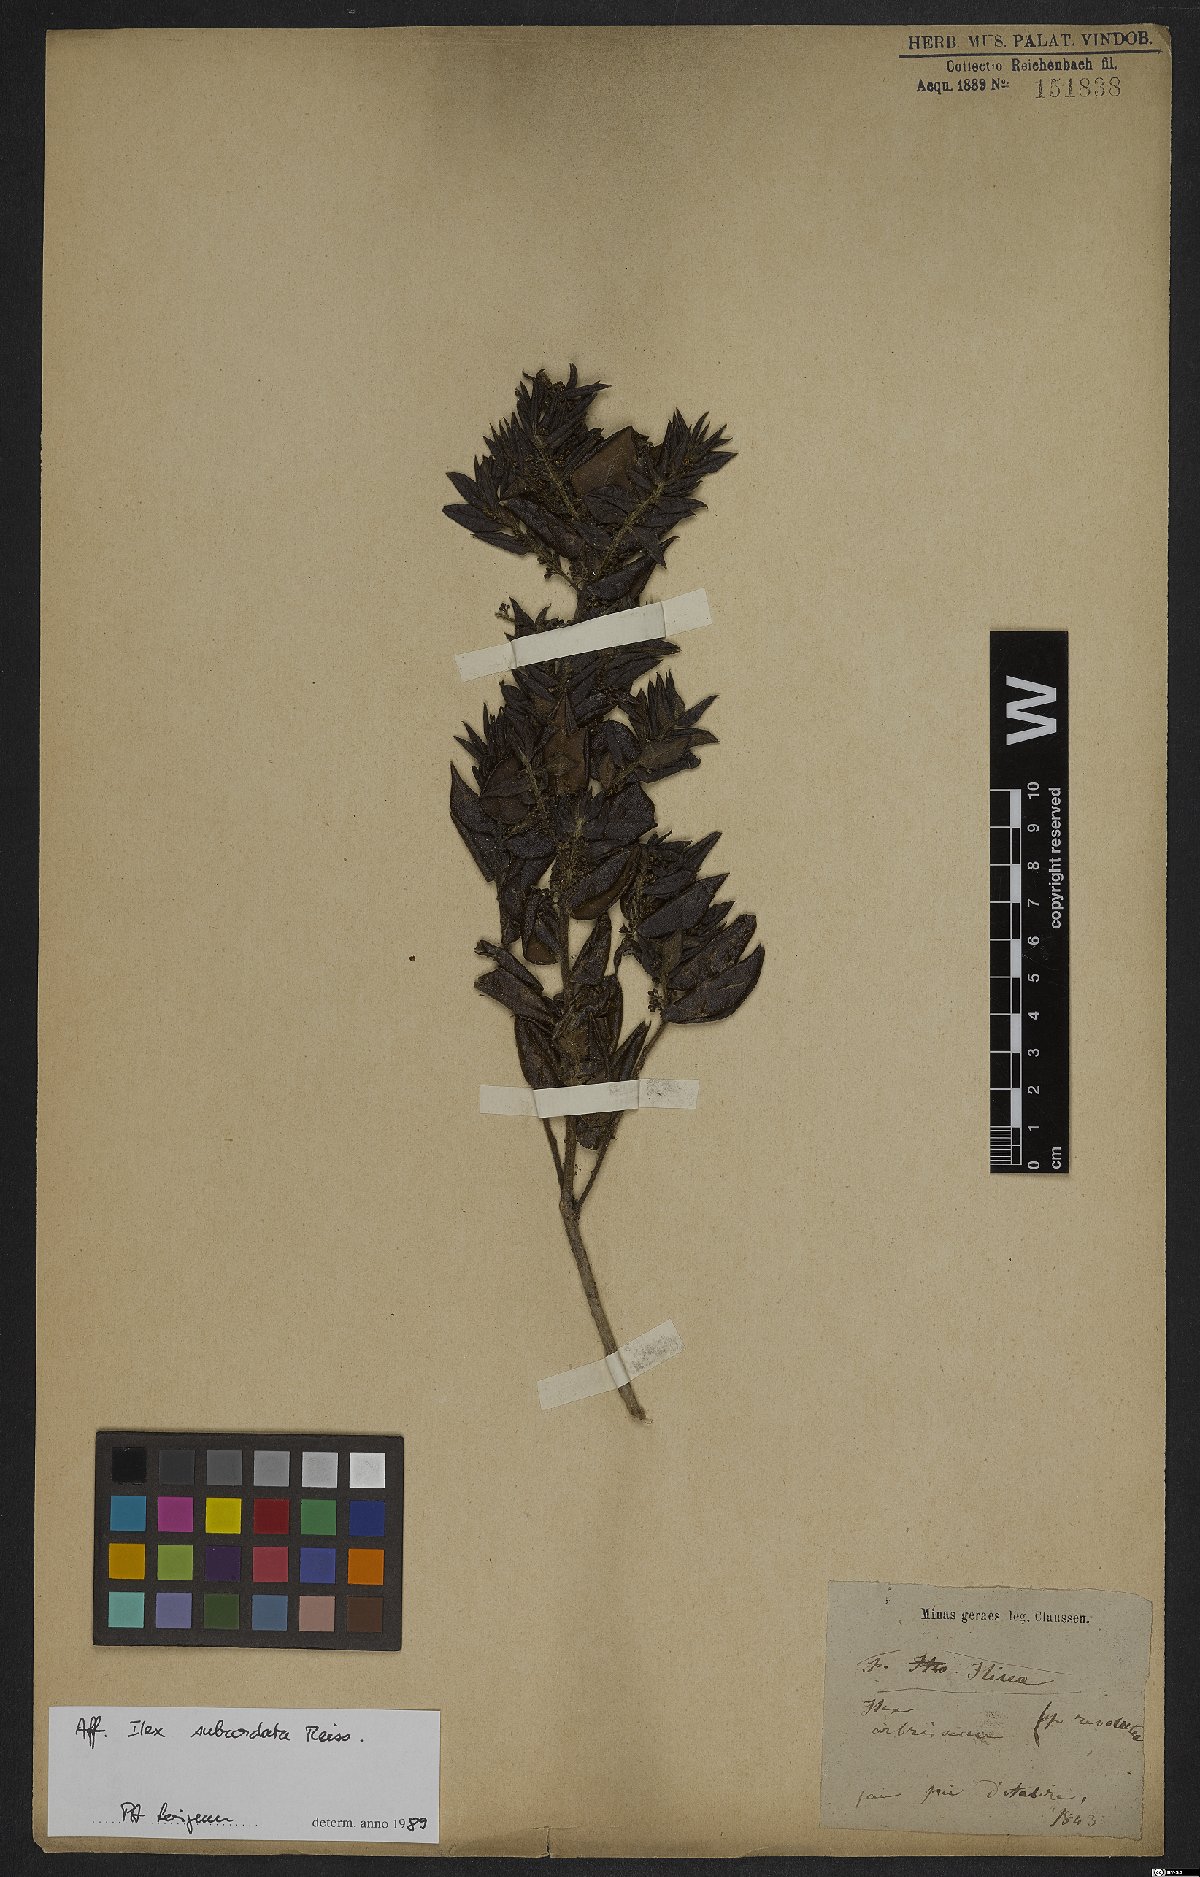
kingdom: Plantae
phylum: Tracheophyta
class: Magnoliopsida
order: Aquifoliales
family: Aquifoliaceae
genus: Ilex
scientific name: Ilex subcordata
